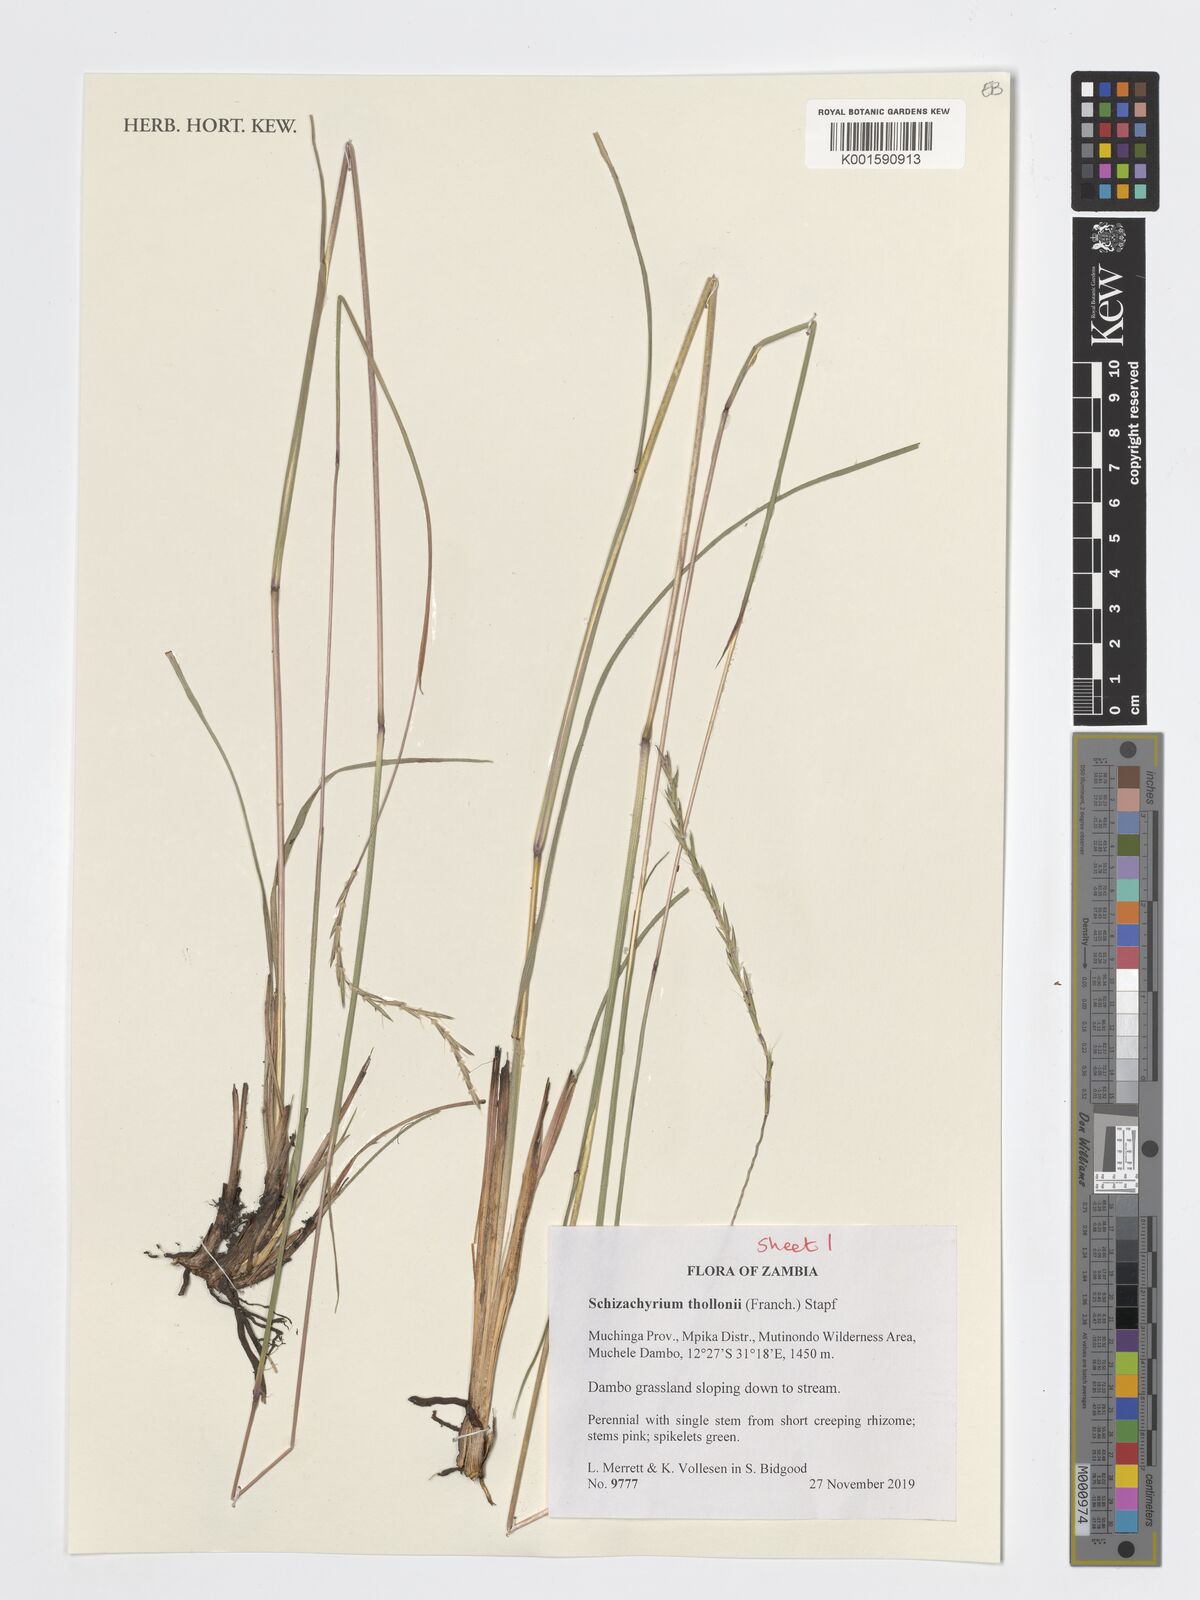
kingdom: Plantae
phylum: Tracheophyta
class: Liliopsida
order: Poales
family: Poaceae
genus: Schizachyrium
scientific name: Schizachyrium thollonii
